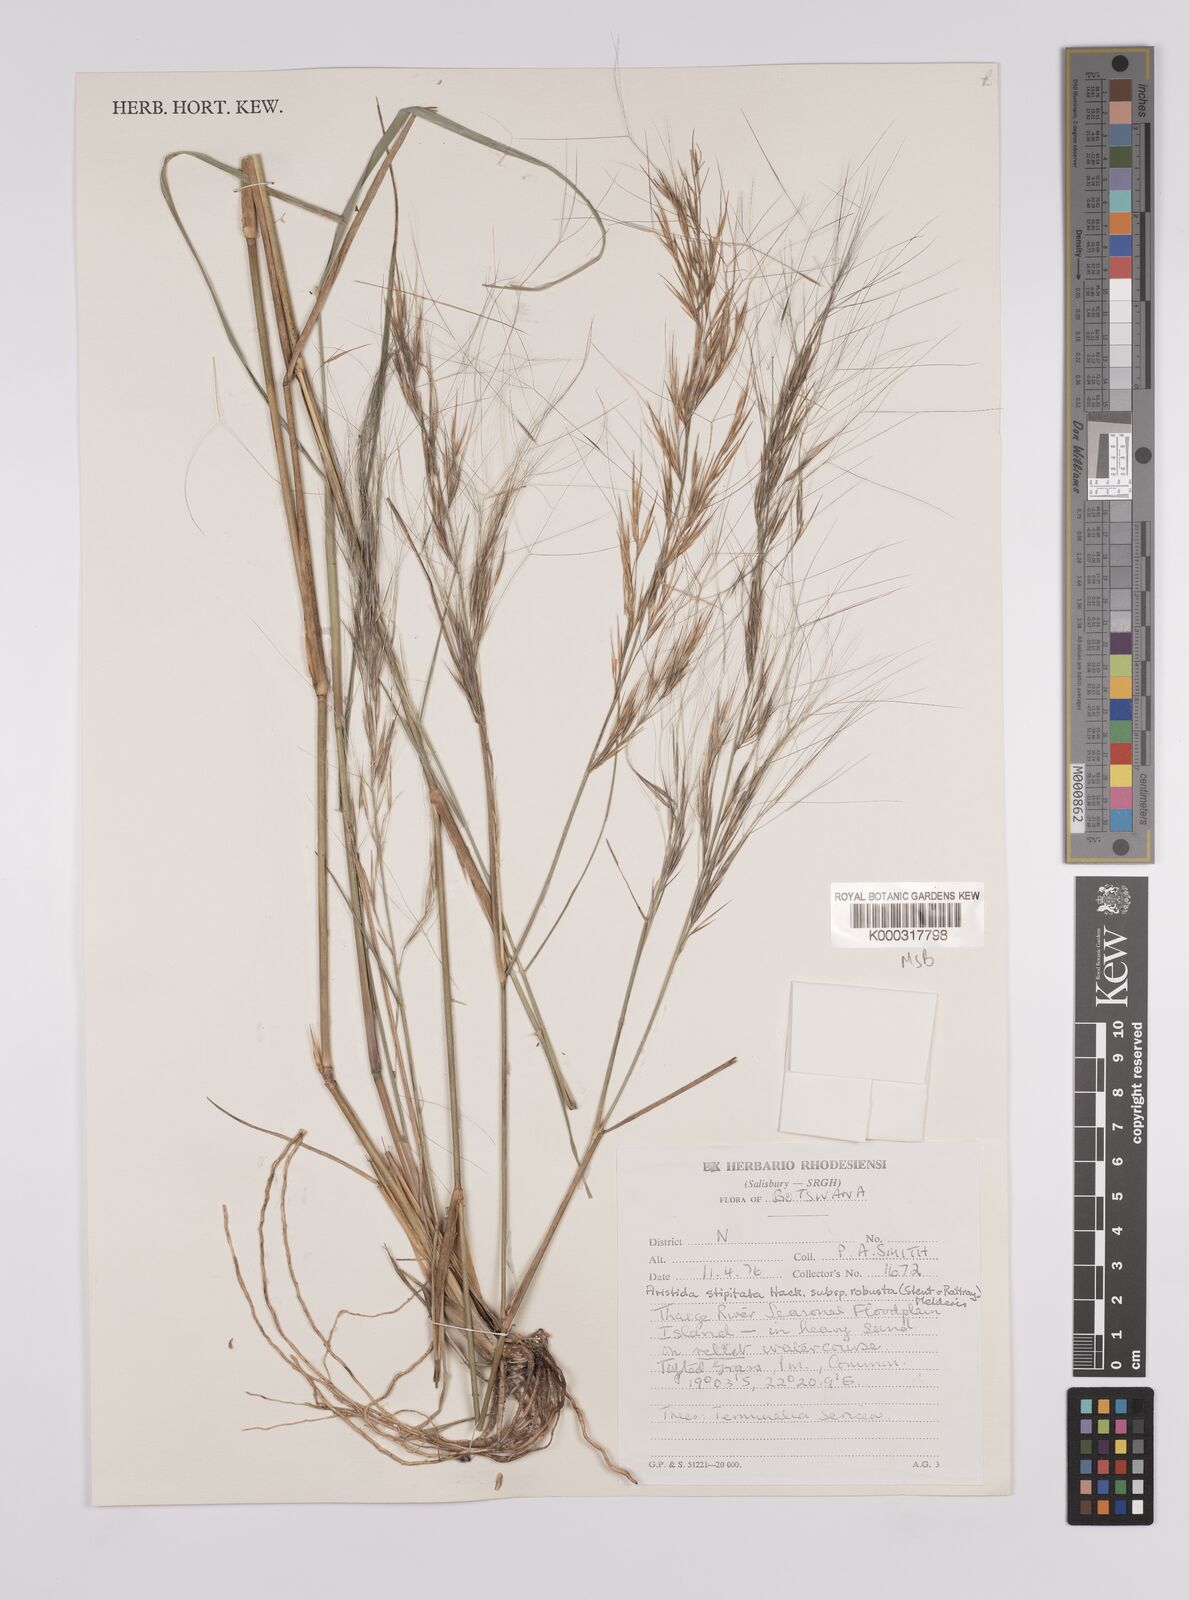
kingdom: Plantae
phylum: Tracheophyta
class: Liliopsida
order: Poales
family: Poaceae
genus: Aristida
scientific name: Aristida stipitata
